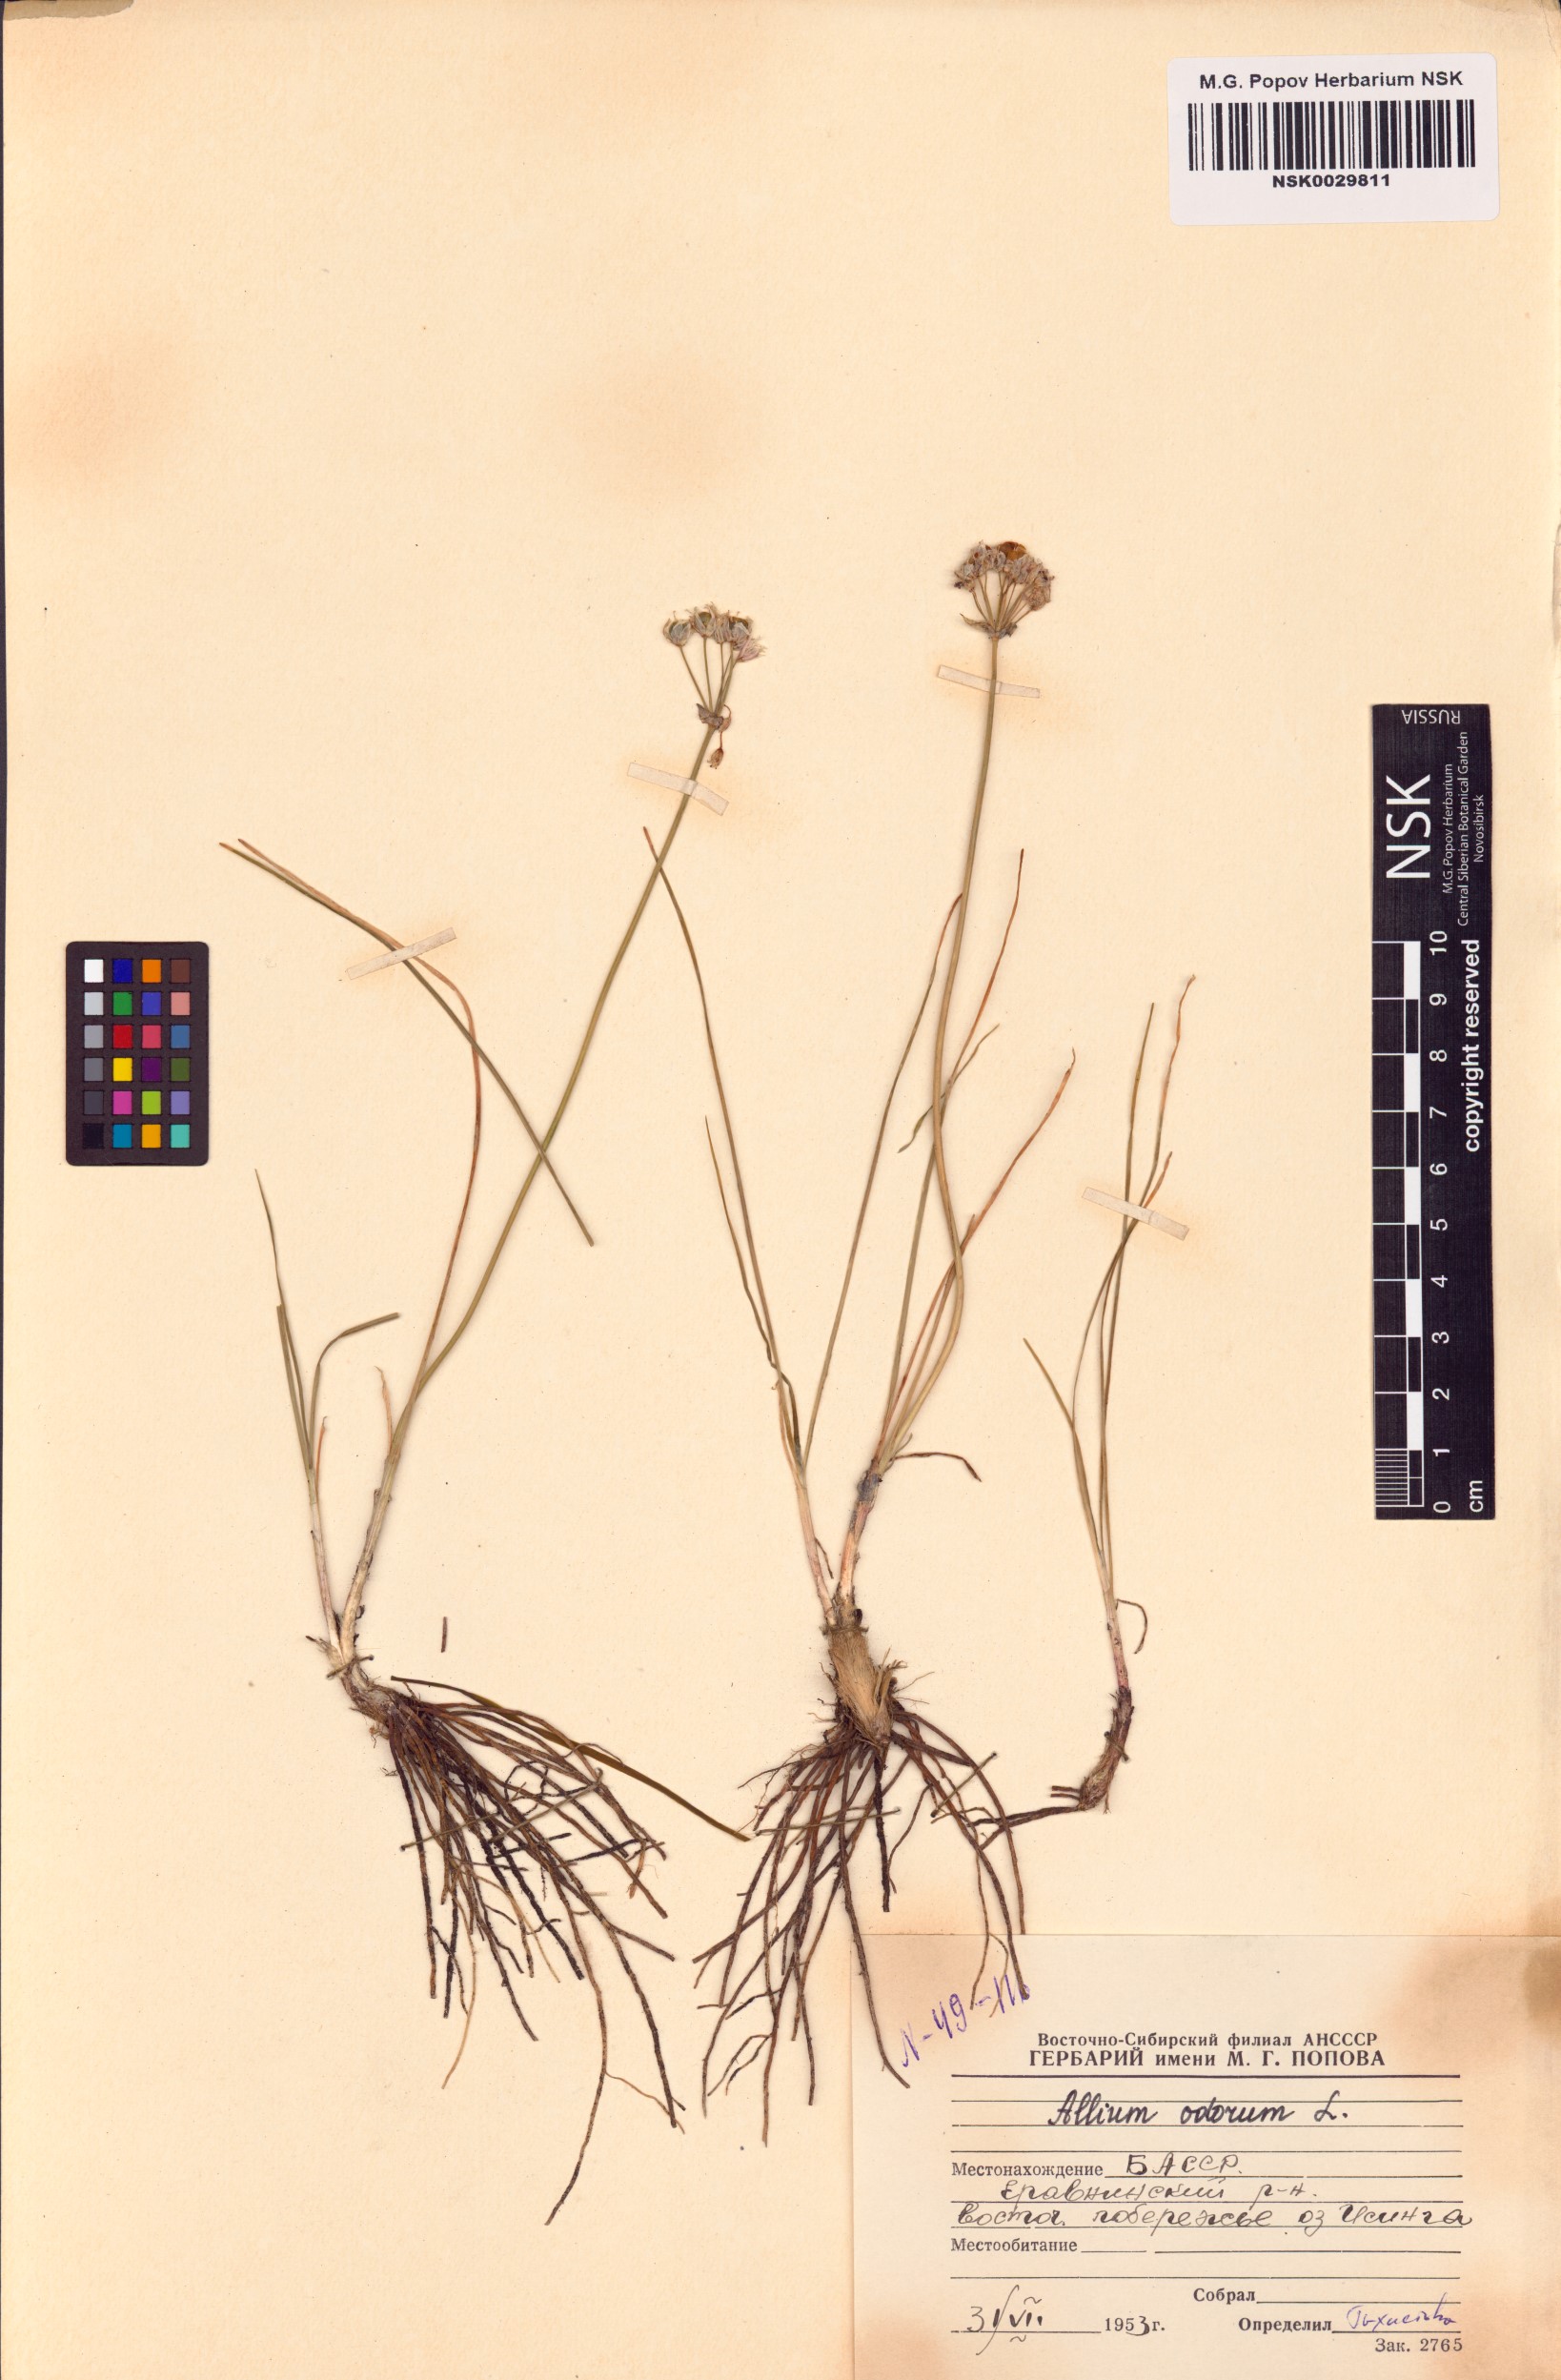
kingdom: Plantae
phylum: Tracheophyta
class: Liliopsida
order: Asparagales
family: Amaryllidaceae
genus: Allium
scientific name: Allium ramosum
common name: Fragrant garlic
